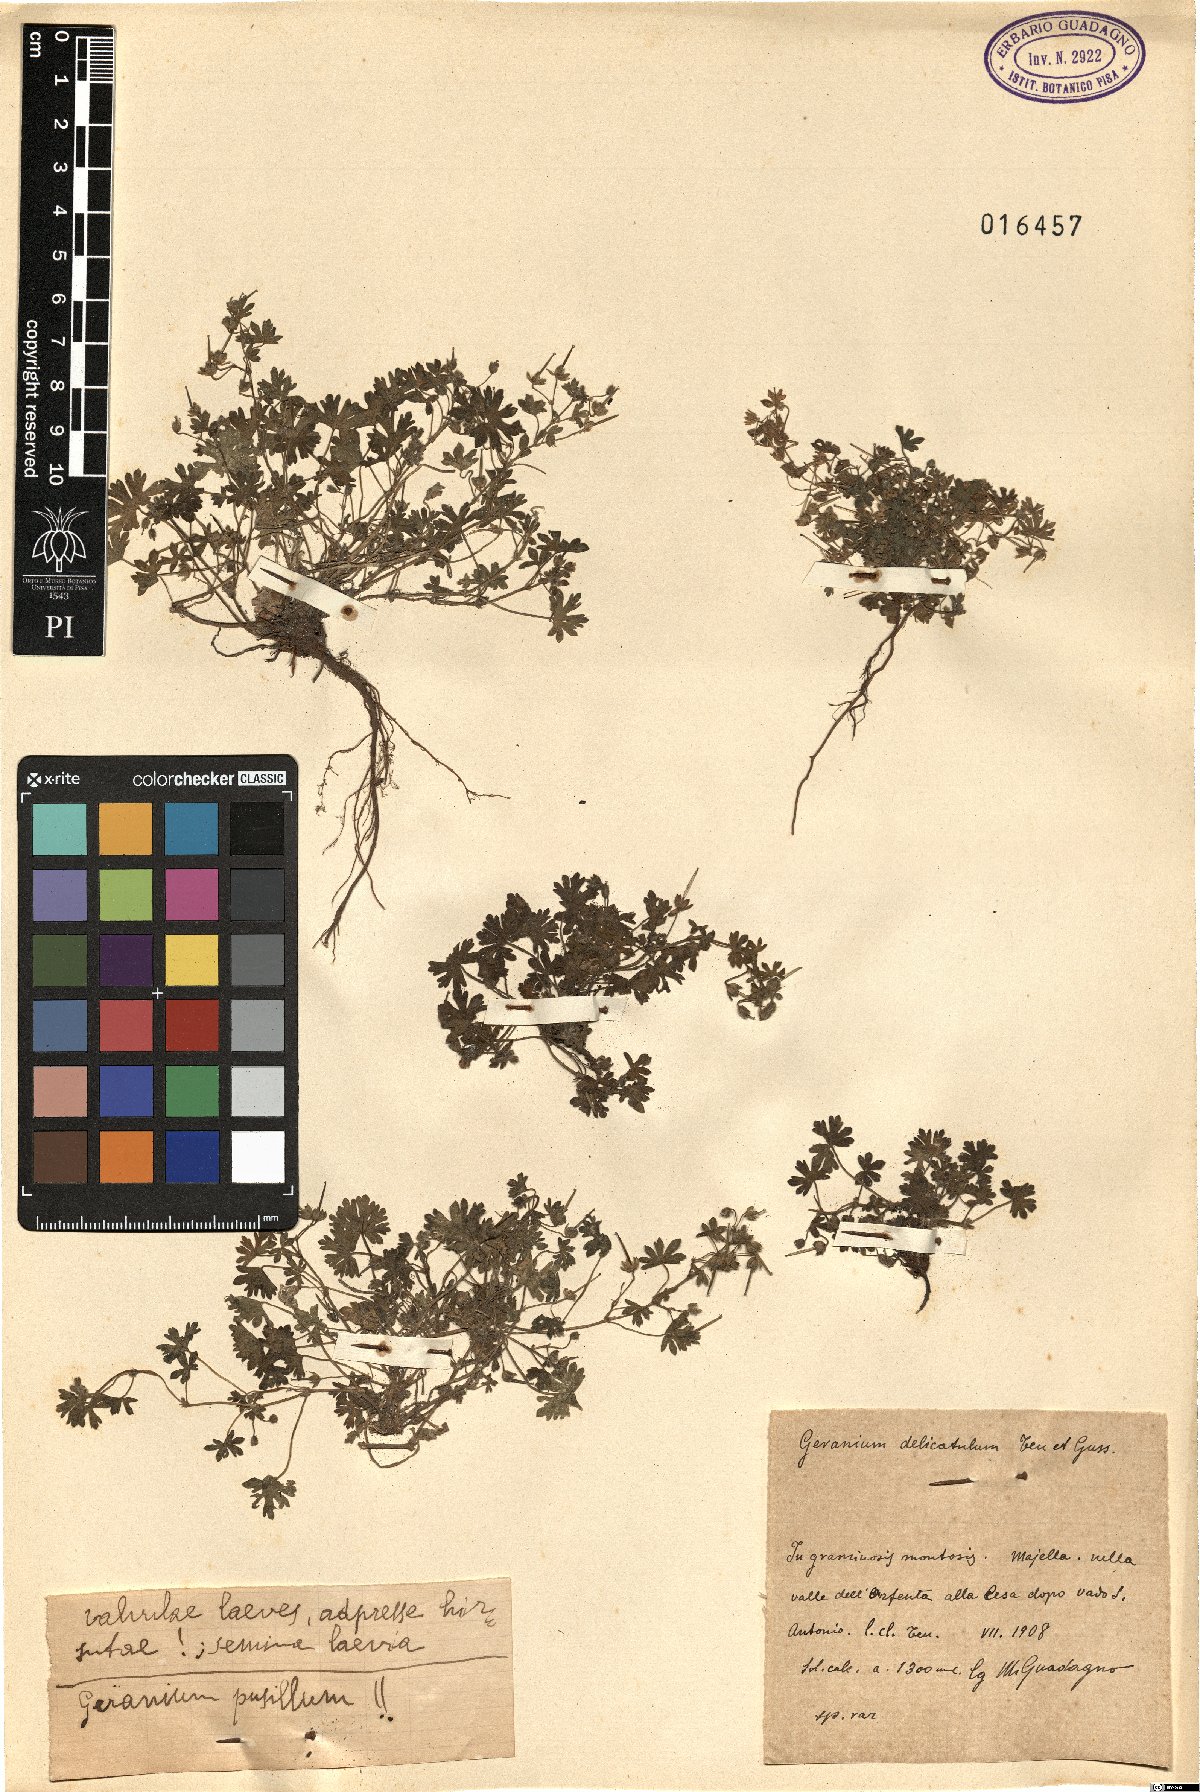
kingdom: Plantae
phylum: Tracheophyta
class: Magnoliopsida
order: Geraniales
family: Geraniaceae
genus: Geranium
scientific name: Geranium pusillum
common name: Small geranium
